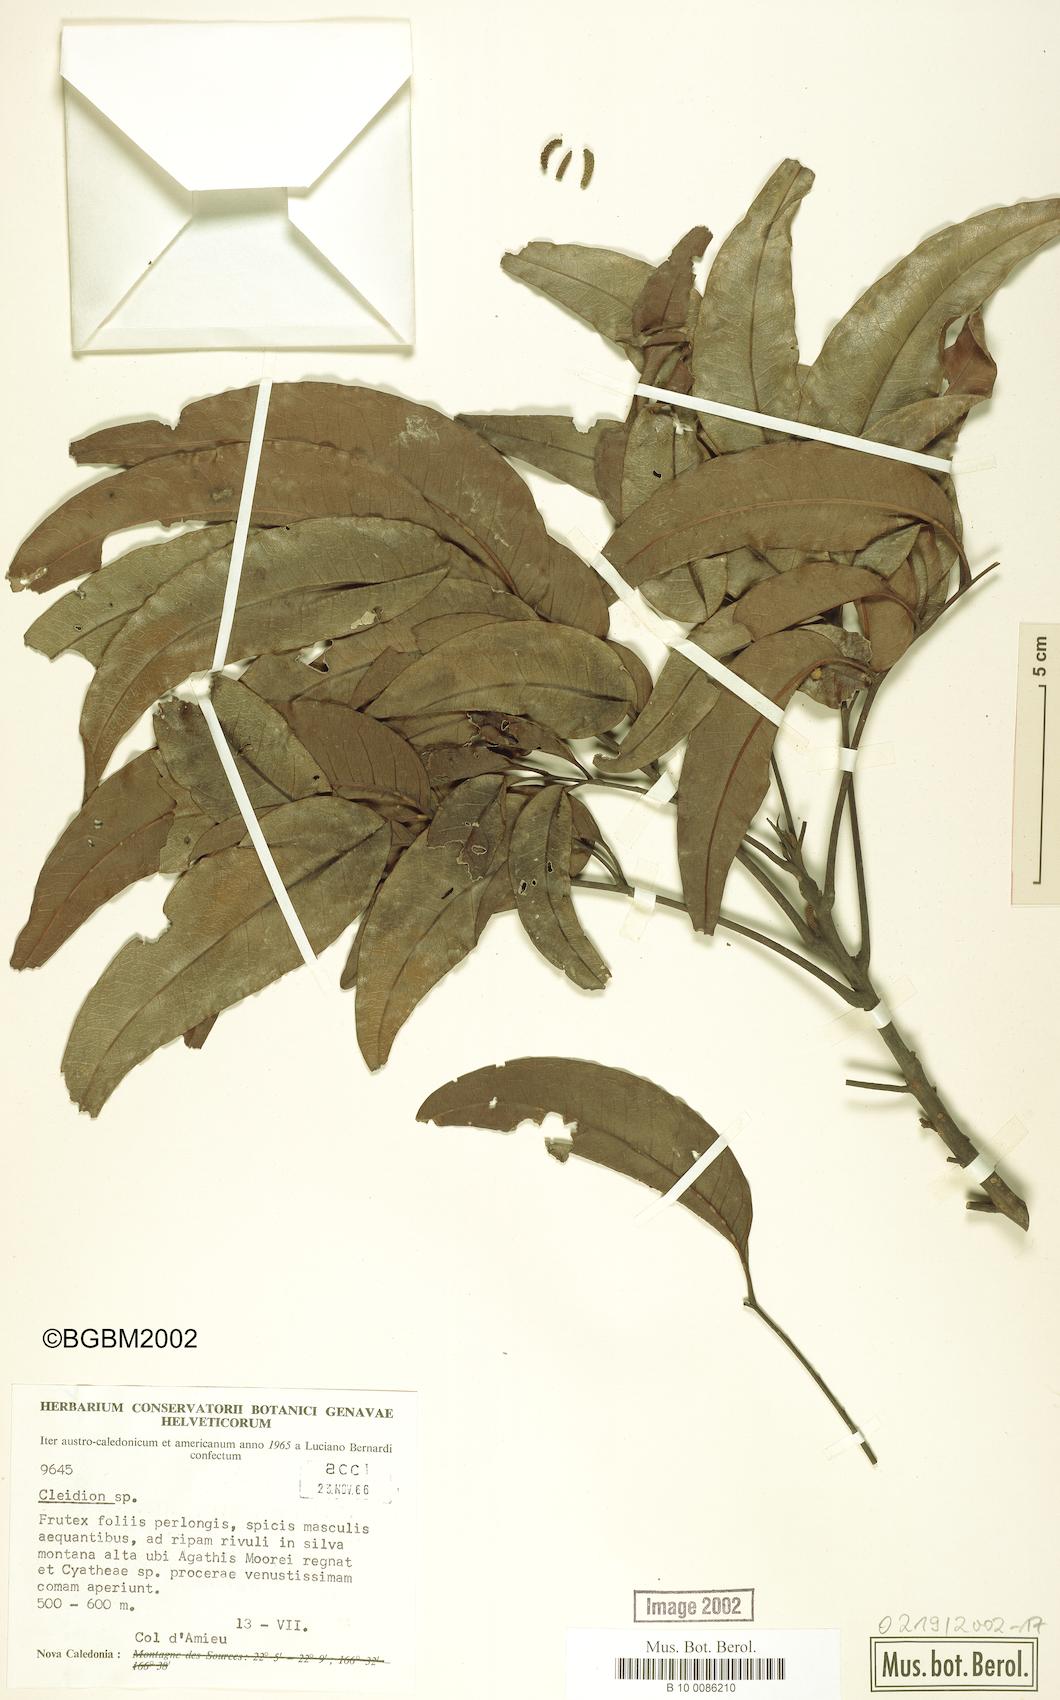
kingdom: Plantae
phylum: Tracheophyta
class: Magnoliopsida
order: Malpighiales
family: Euphorbiaceae
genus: Cleidion
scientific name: Cleidion
